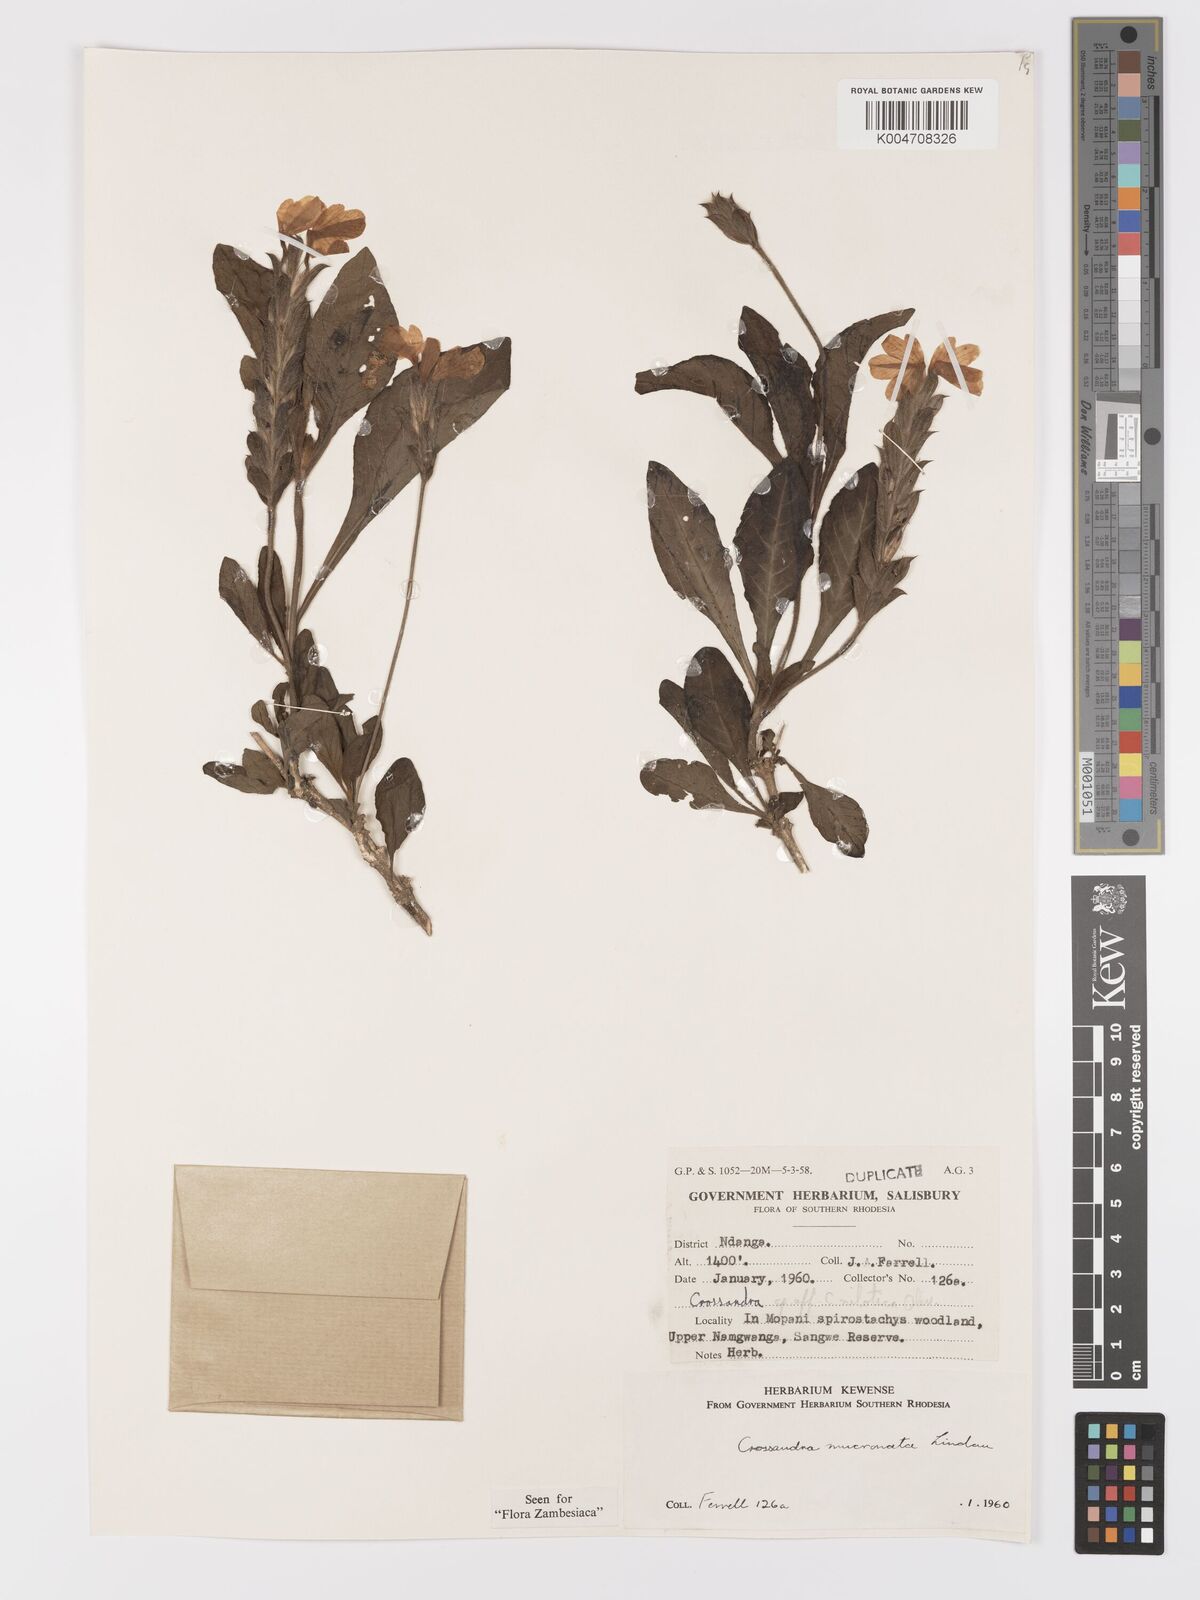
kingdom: Plantae
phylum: Tracheophyta
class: Magnoliopsida
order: Lamiales
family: Acanthaceae
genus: Crossandra
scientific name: Crossandra mucronata
